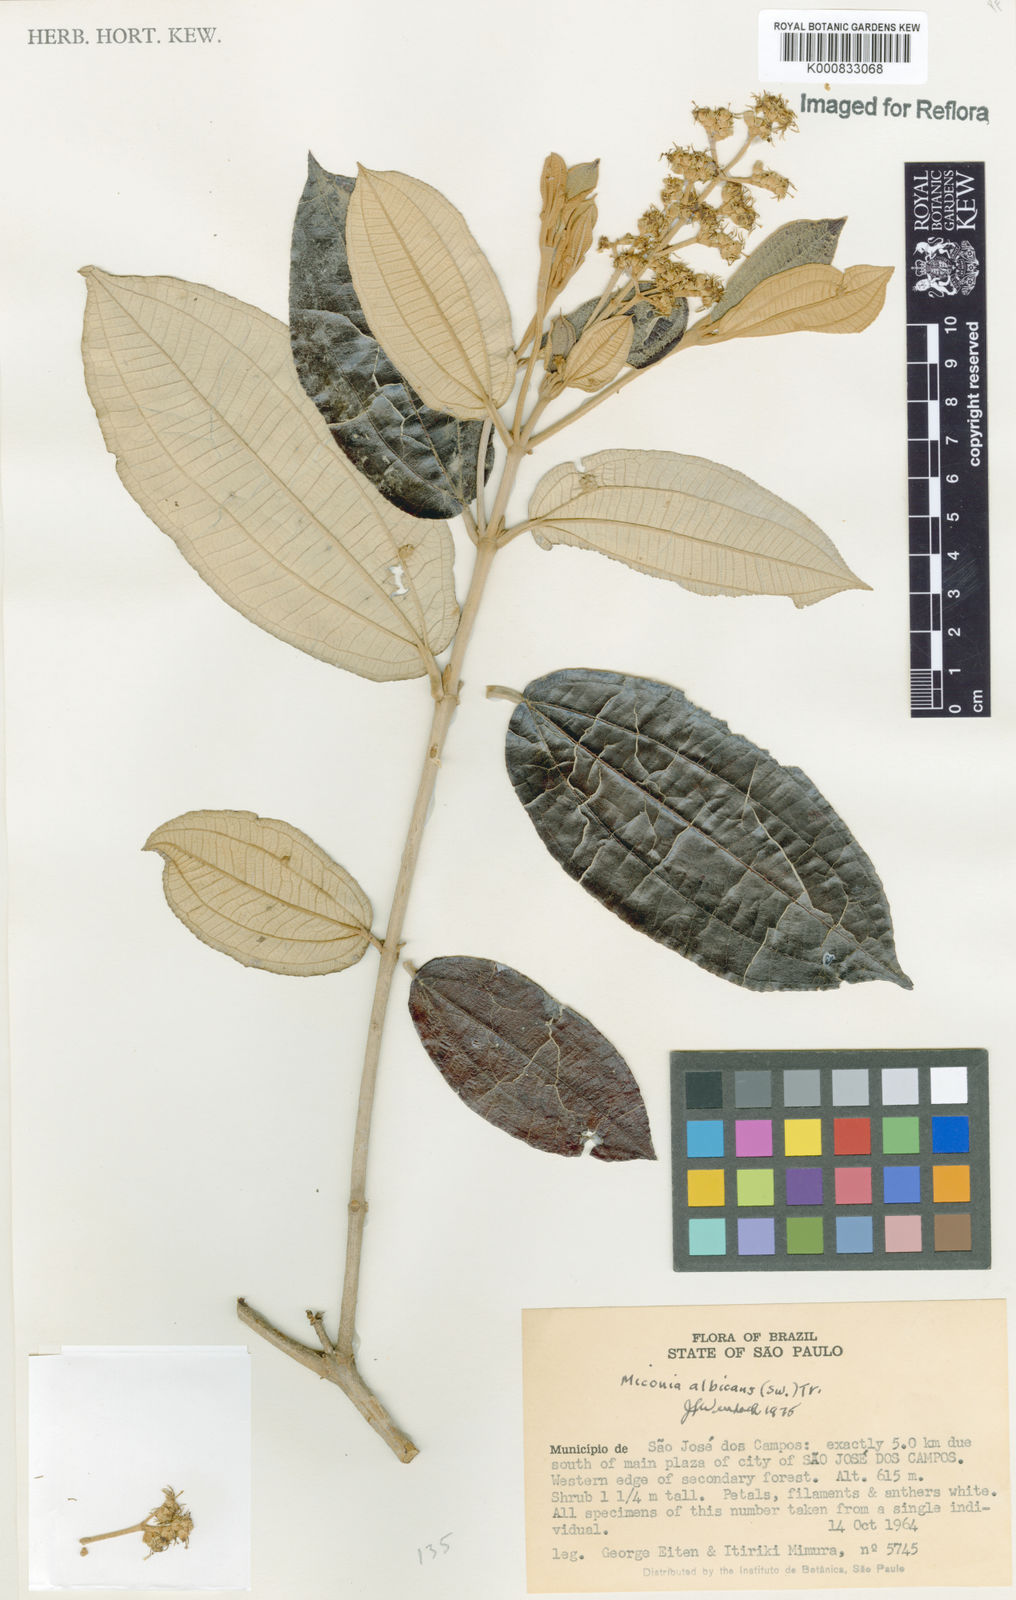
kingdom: Plantae
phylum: Tracheophyta
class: Magnoliopsida
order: Myrtales
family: Melastomataceae
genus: Miconia
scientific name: Miconia albicans
